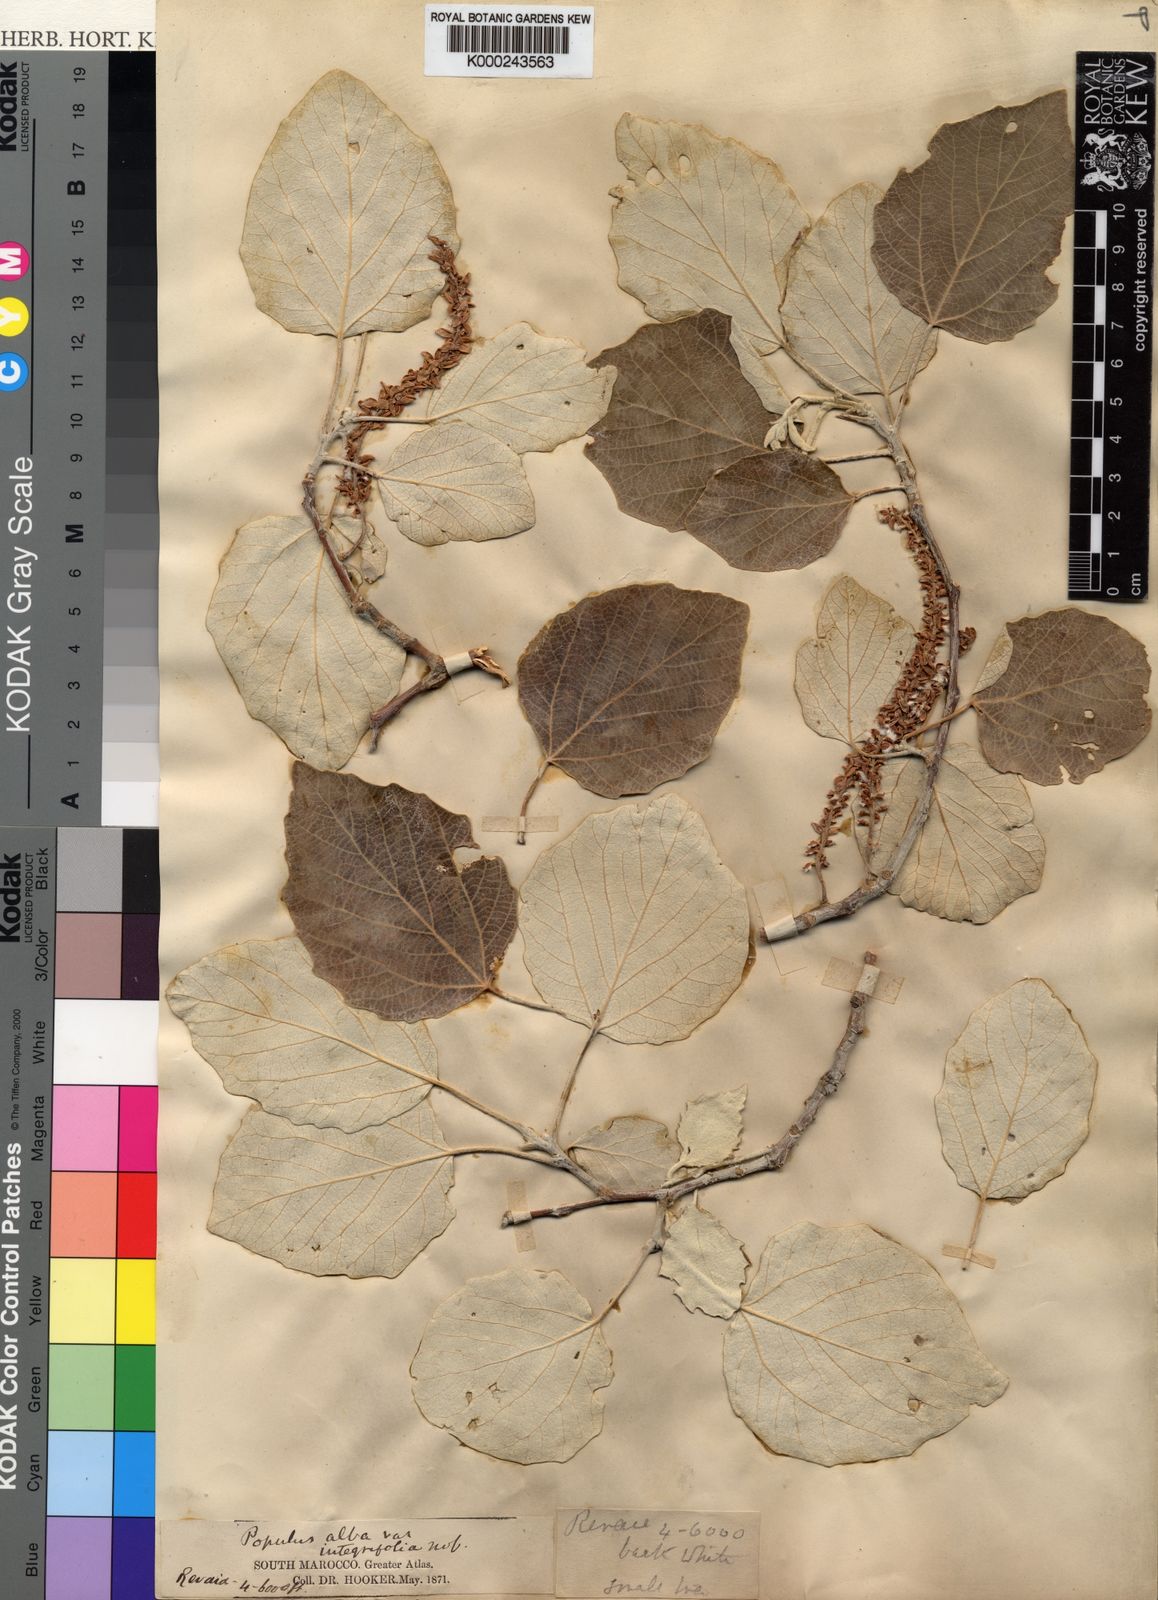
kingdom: Plantae
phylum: Tracheophyta
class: Magnoliopsida
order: Malpighiales
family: Salicaceae
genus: Populus
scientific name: Populus alba
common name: White poplar
